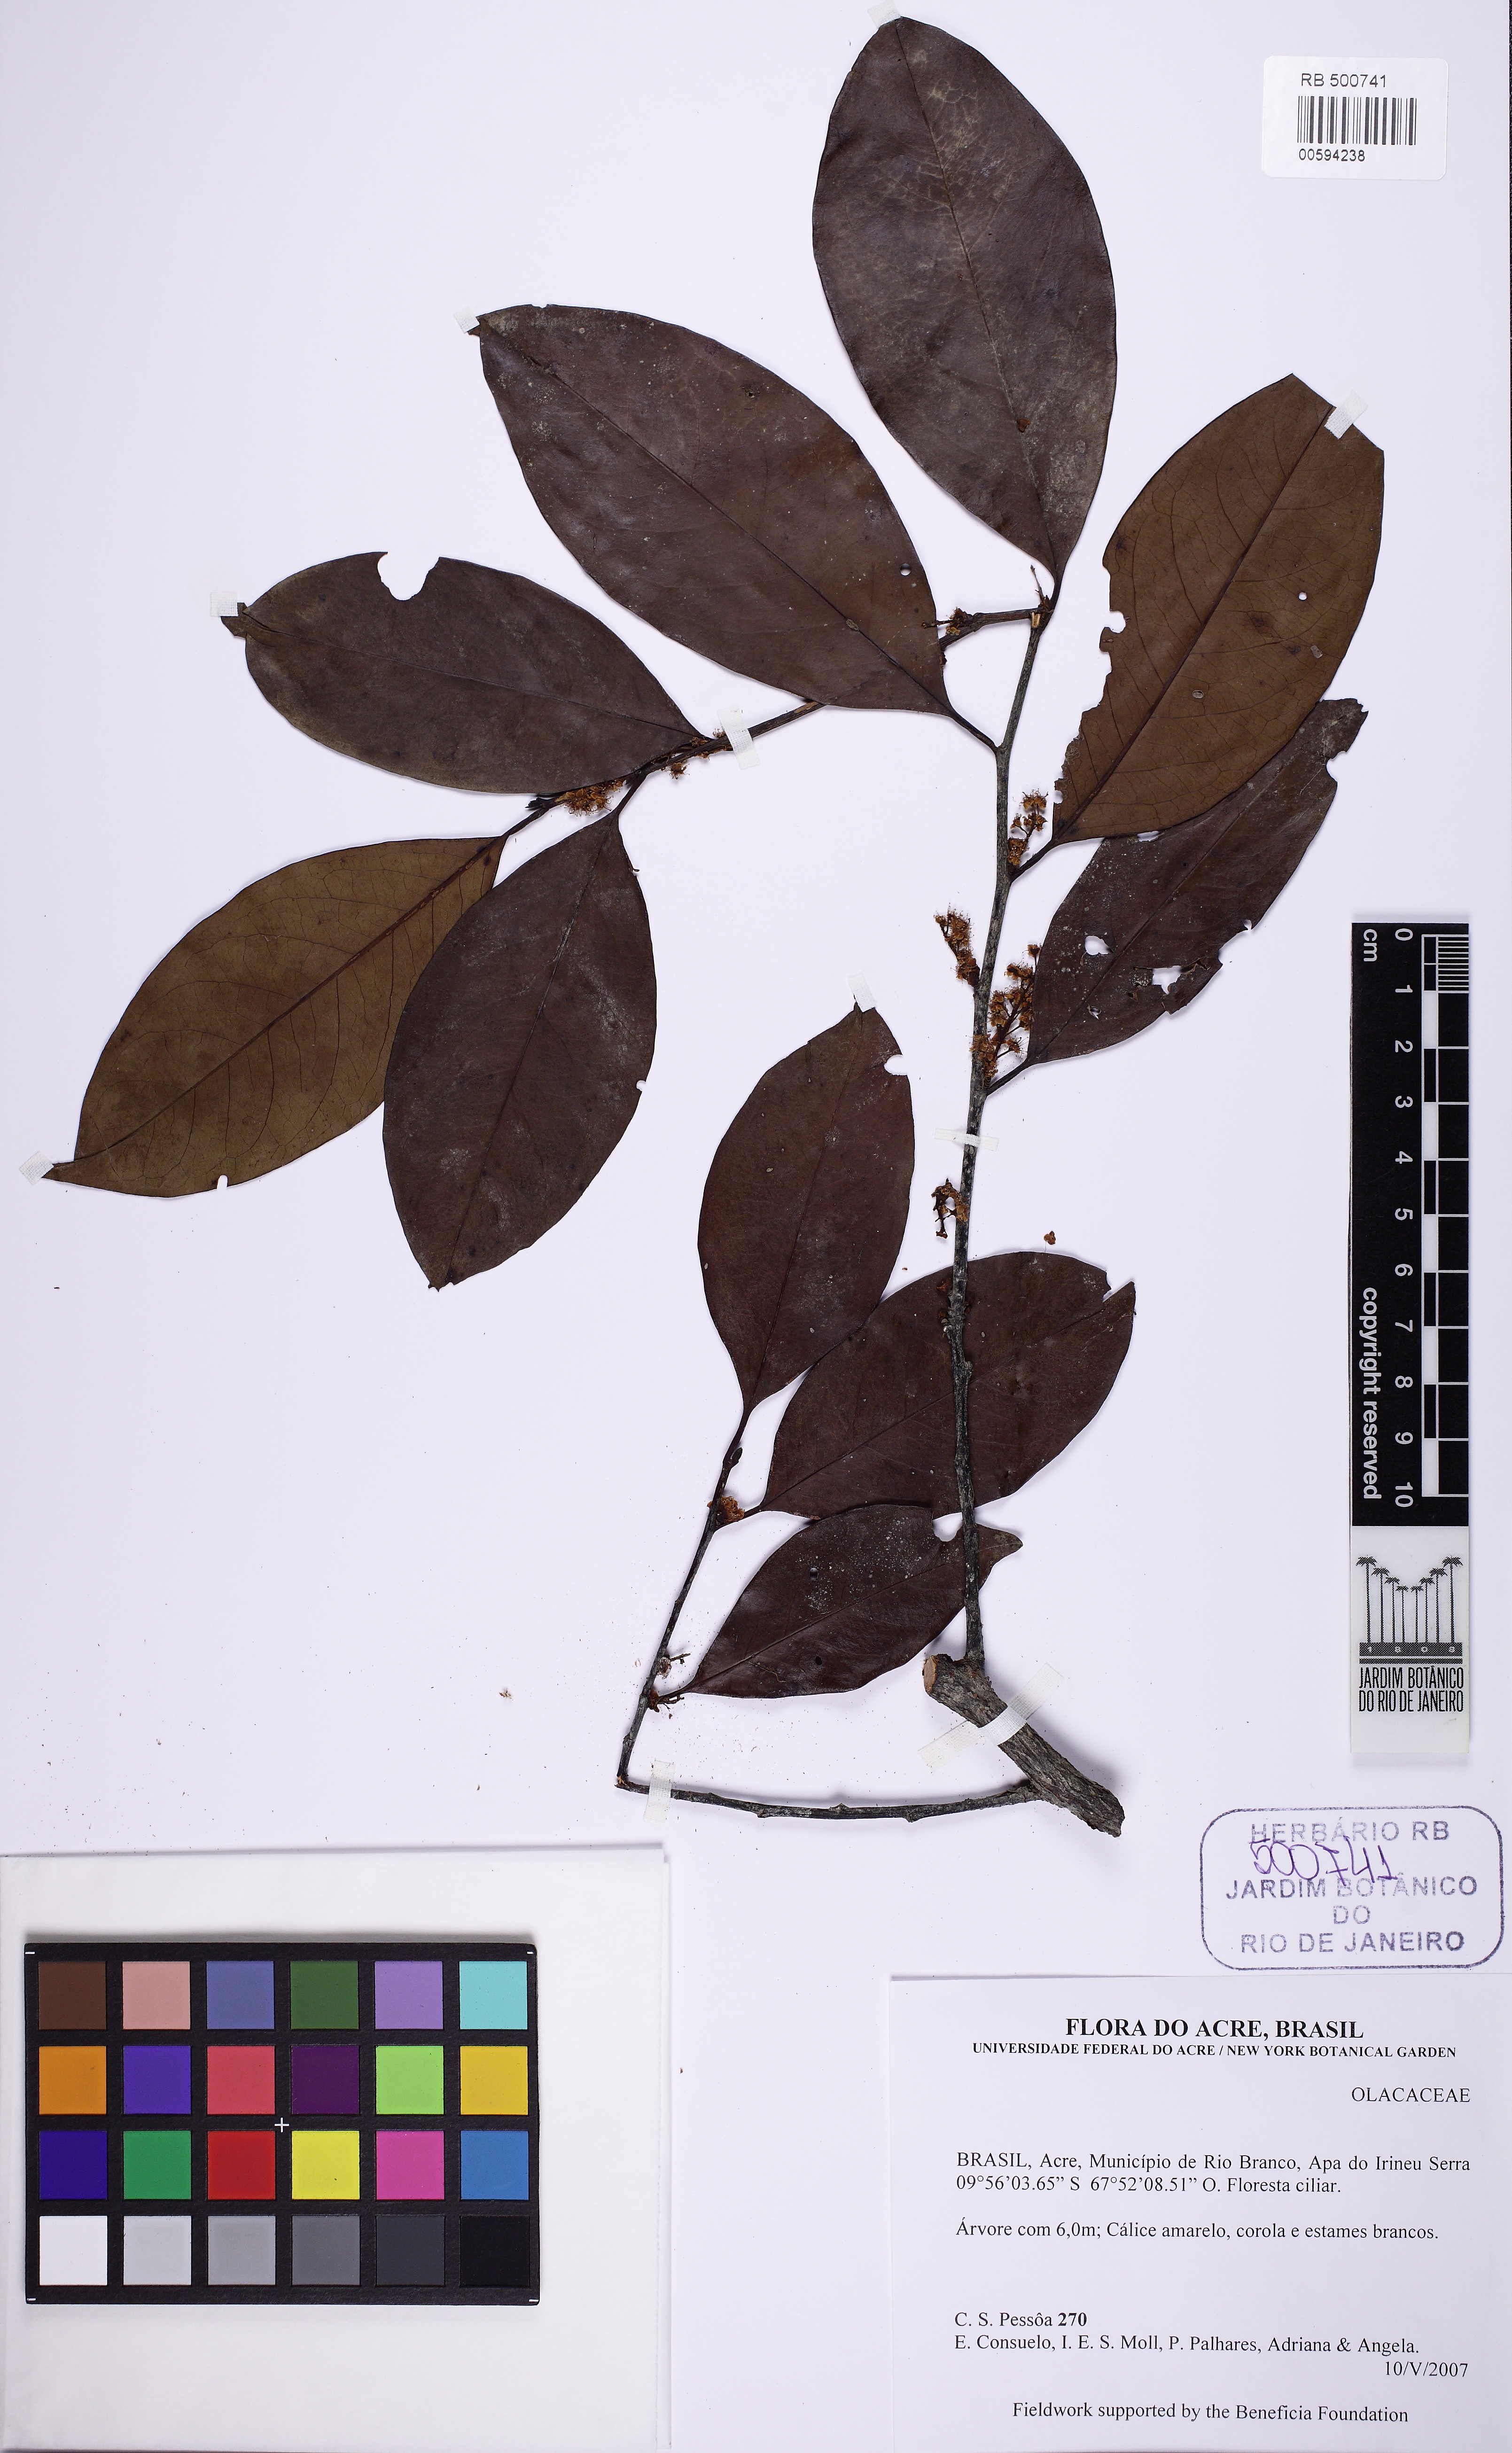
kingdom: Plantae
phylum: Tracheophyta
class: Magnoliopsida
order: Santalales
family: Olacaceae
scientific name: Olacaceae
